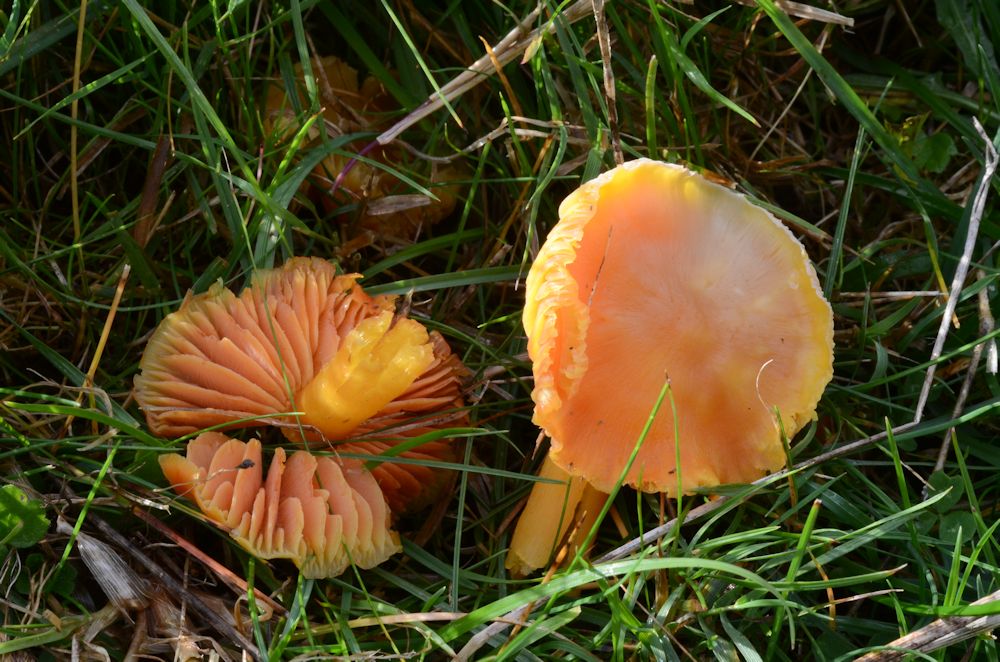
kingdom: Fungi
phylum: Basidiomycota
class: Agaricomycetes
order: Agaricales
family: Hygrophoraceae
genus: Hygrocybe
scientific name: Hygrocybe quieta
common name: tæge-vokshat
